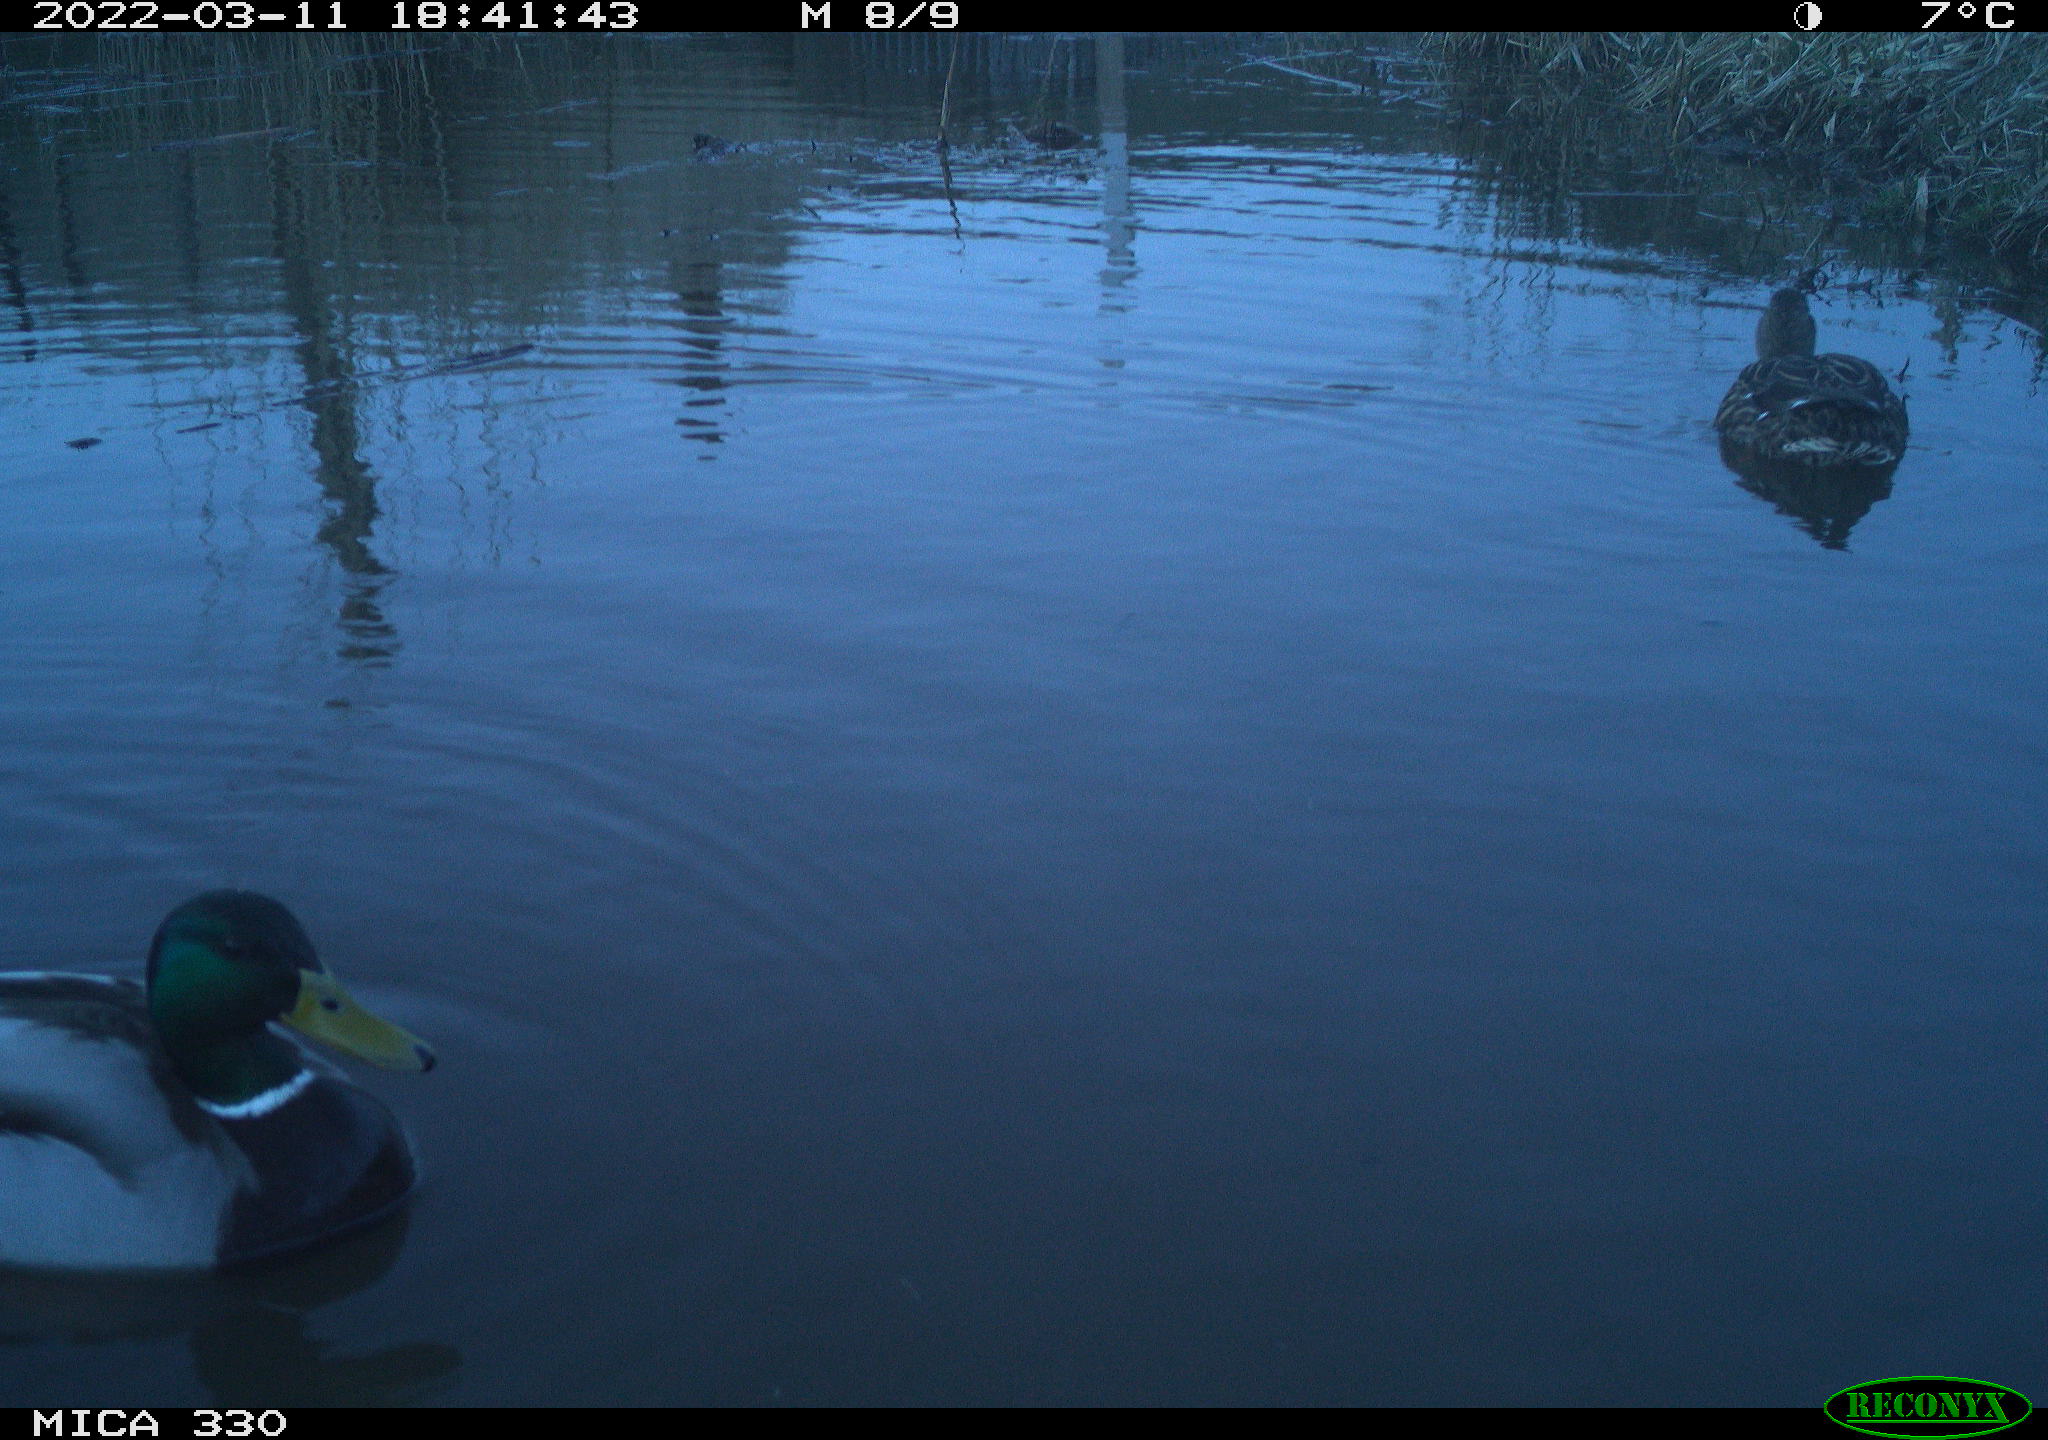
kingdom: Animalia
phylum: Chordata
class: Aves
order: Anseriformes
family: Anatidae
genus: Anas
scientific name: Anas platyrhynchos
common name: Mallard
